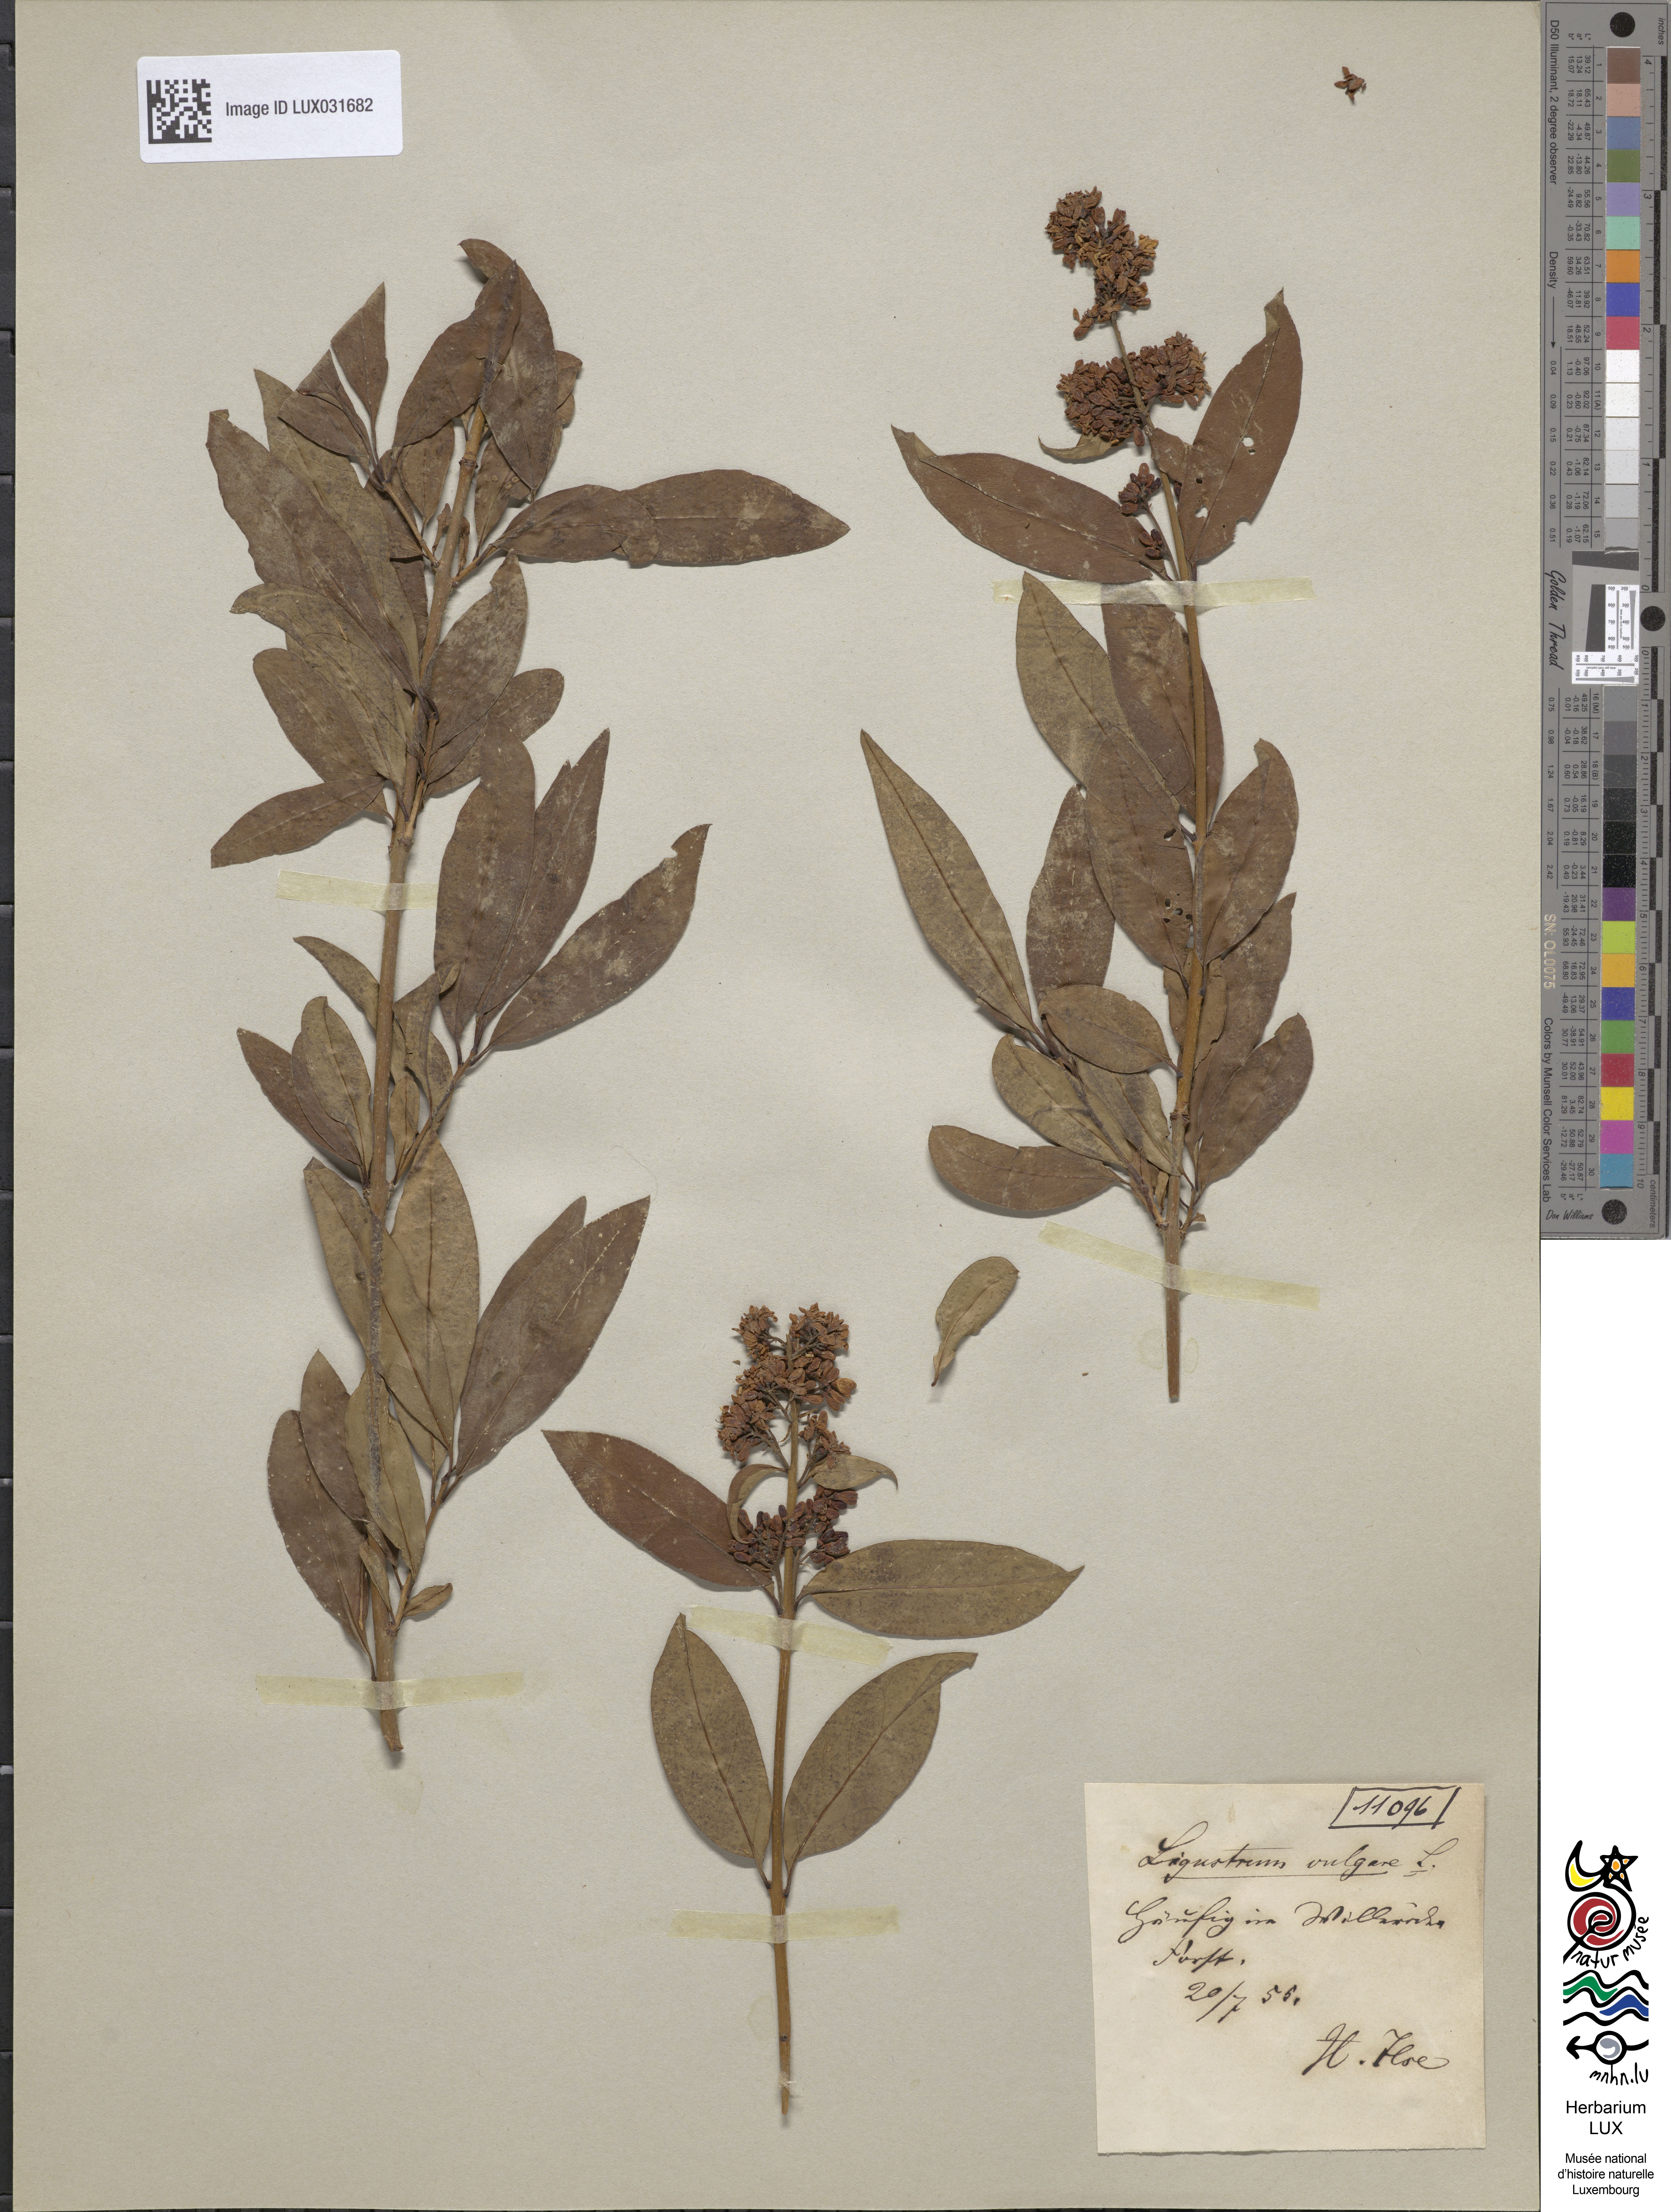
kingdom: Plantae
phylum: Tracheophyta
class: Magnoliopsida
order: Lamiales
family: Oleaceae
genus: Ligustrum
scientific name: Ligustrum vulgare
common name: Wild privet
